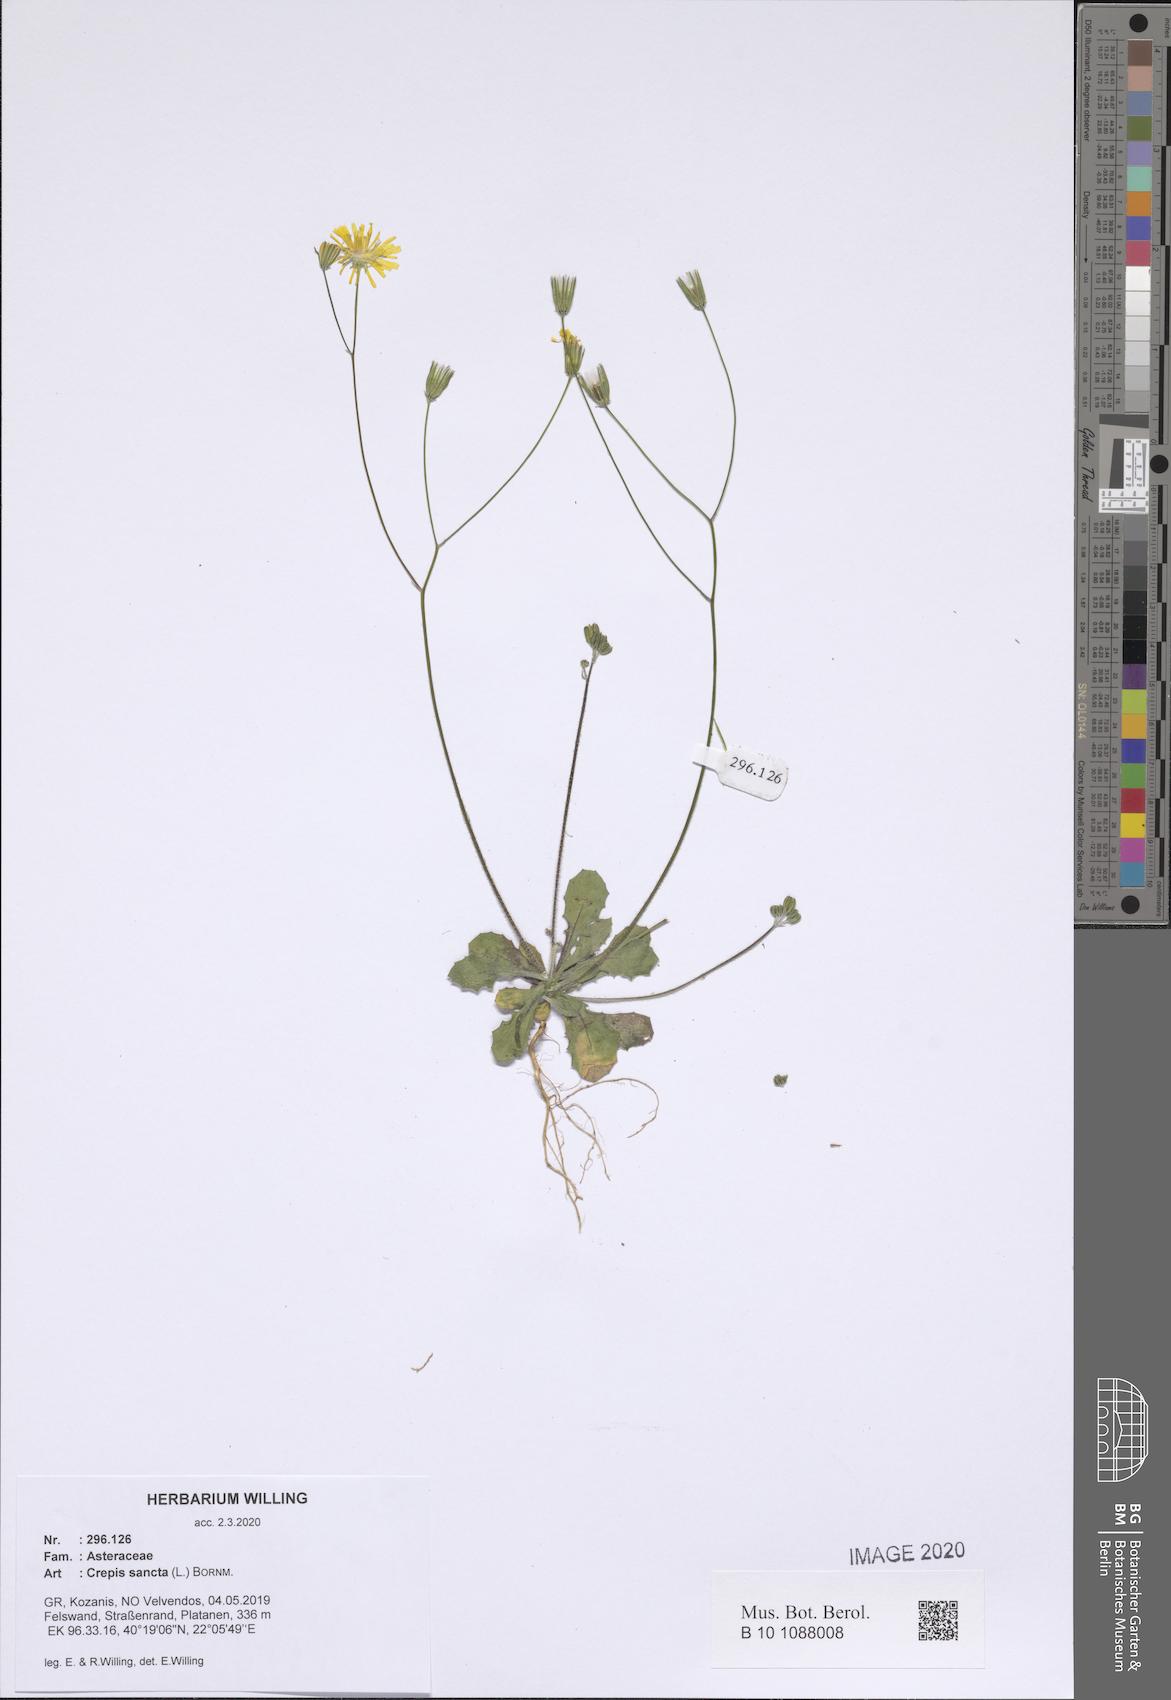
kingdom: Plantae
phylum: Tracheophyta
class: Magnoliopsida
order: Asterales
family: Asteraceae
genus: Crepis
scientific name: Crepis sancta
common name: Hawk's-beard
